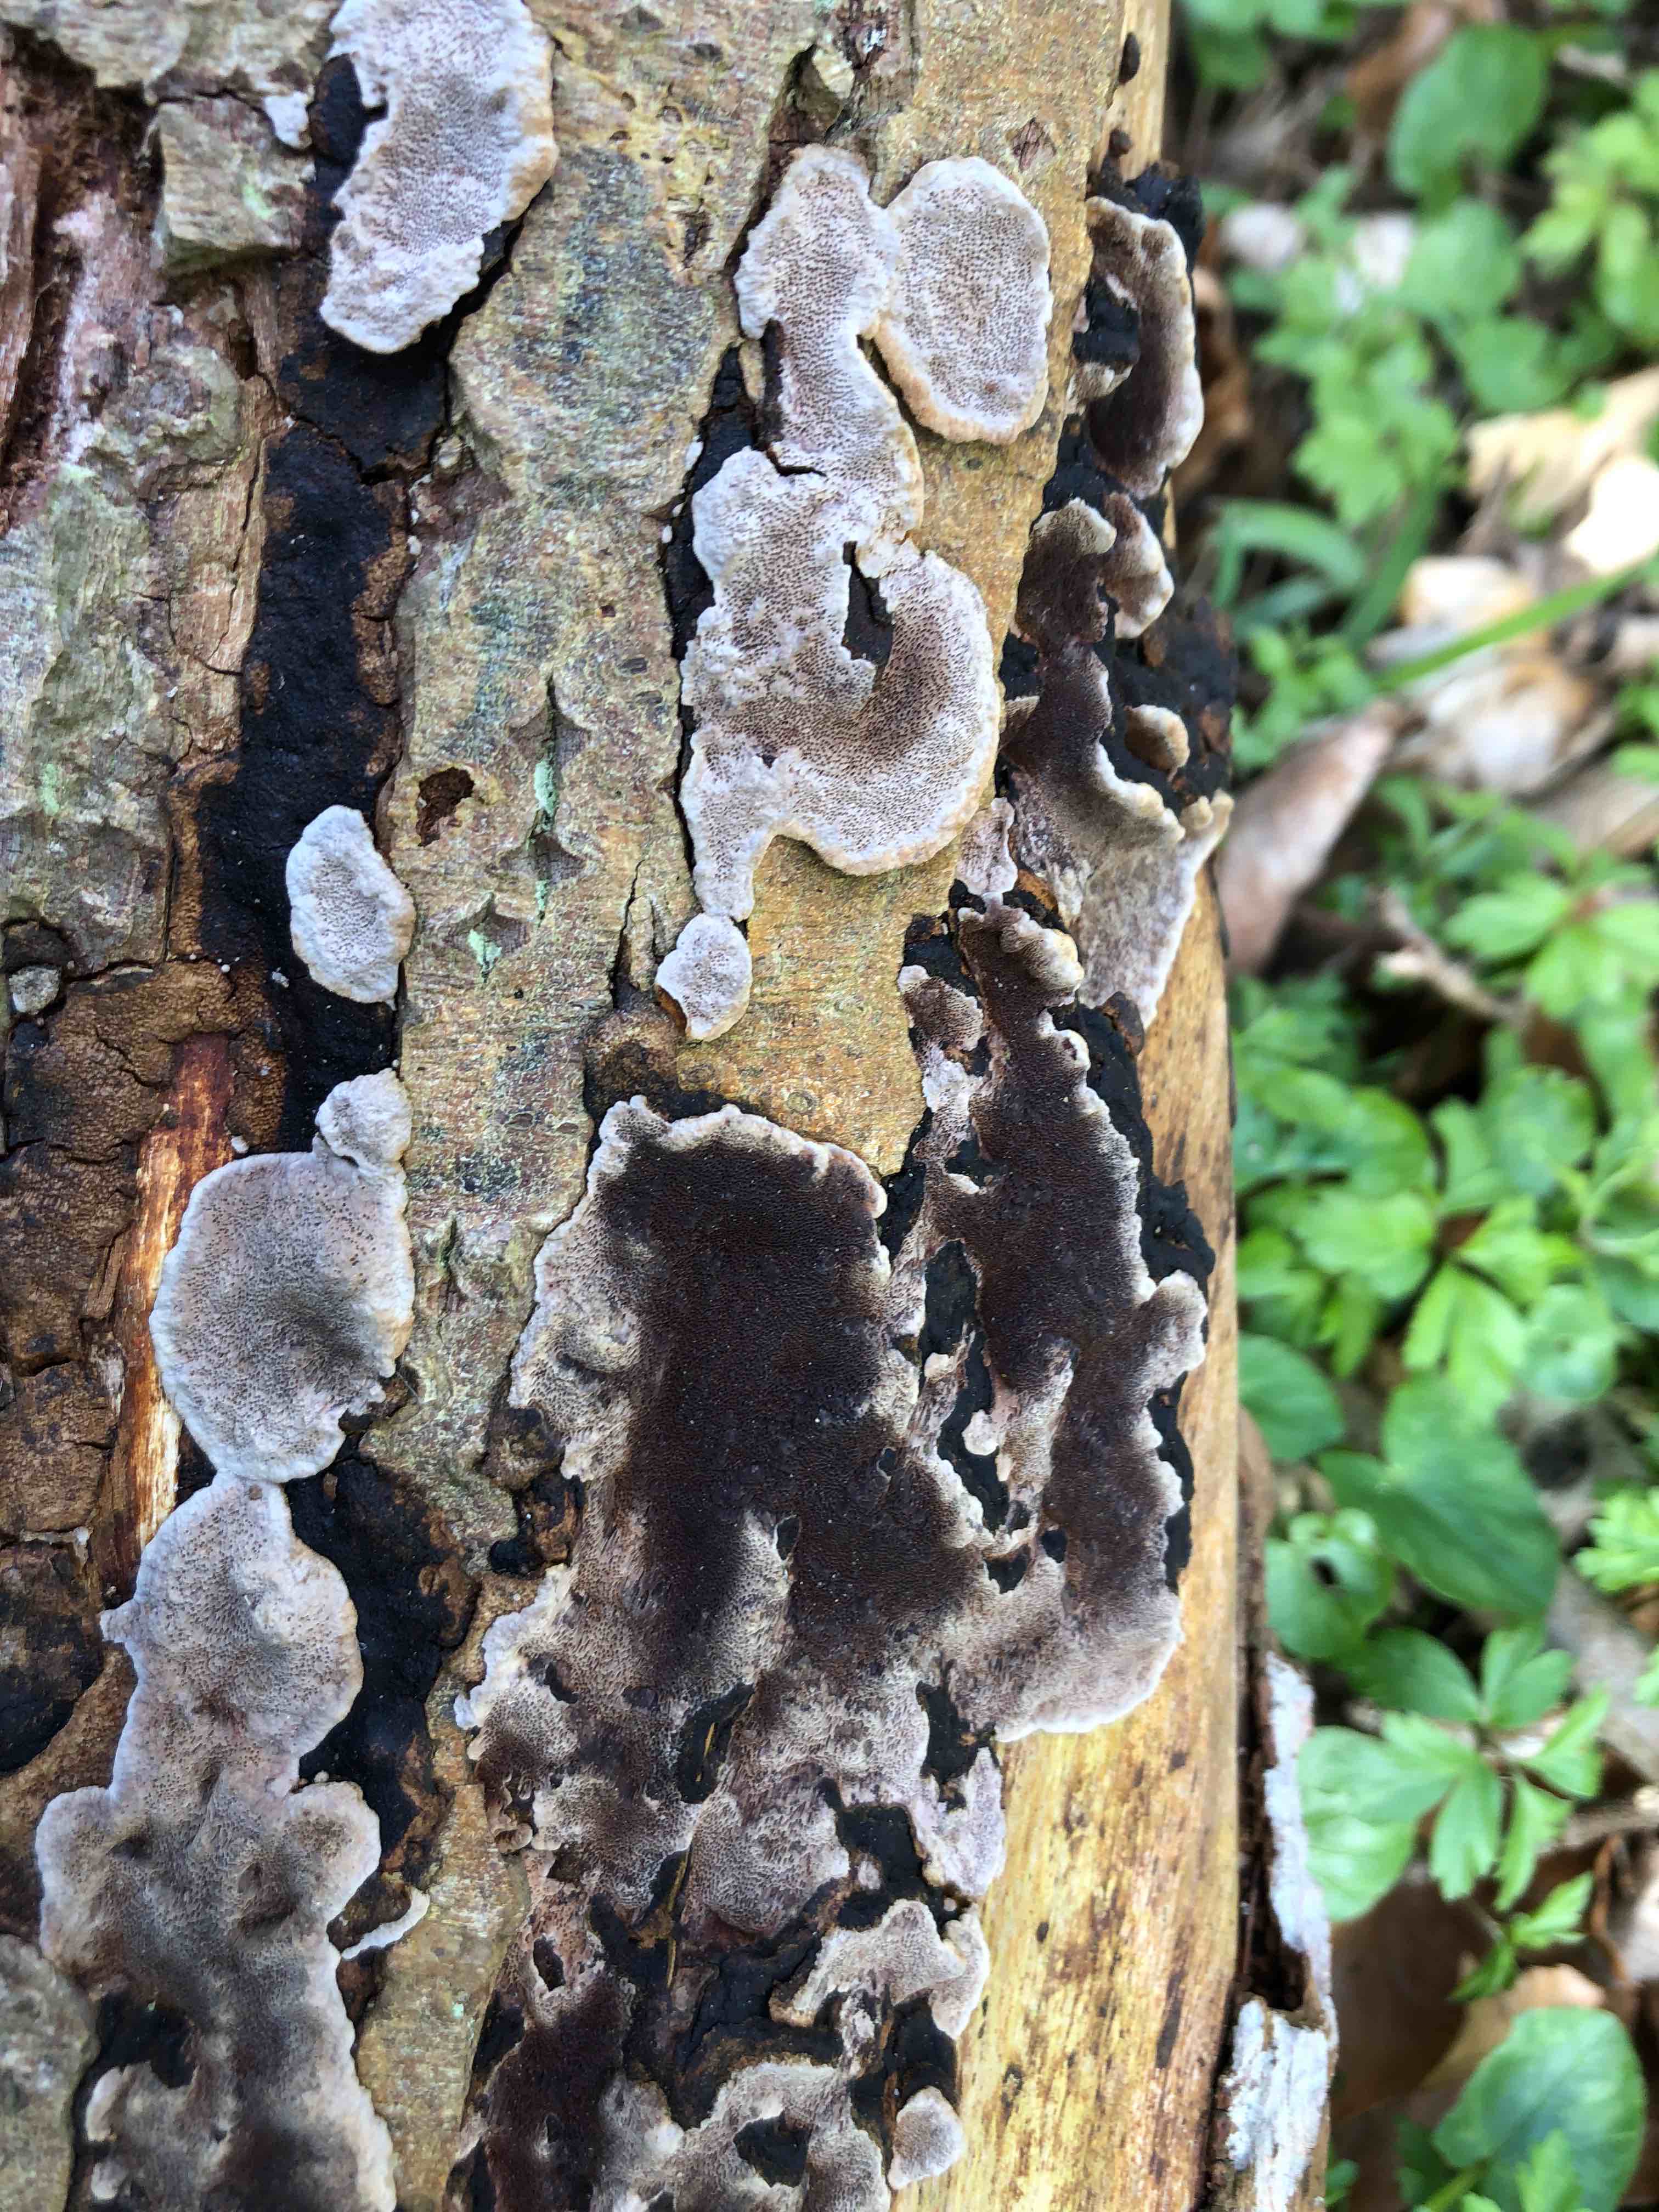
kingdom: Fungi
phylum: Basidiomycota
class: Agaricomycetes
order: Hymenochaetales
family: Hymenochaetaceae
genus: Phellinopsis
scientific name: Phellinopsis conchata
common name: pile-ildporesvamp
